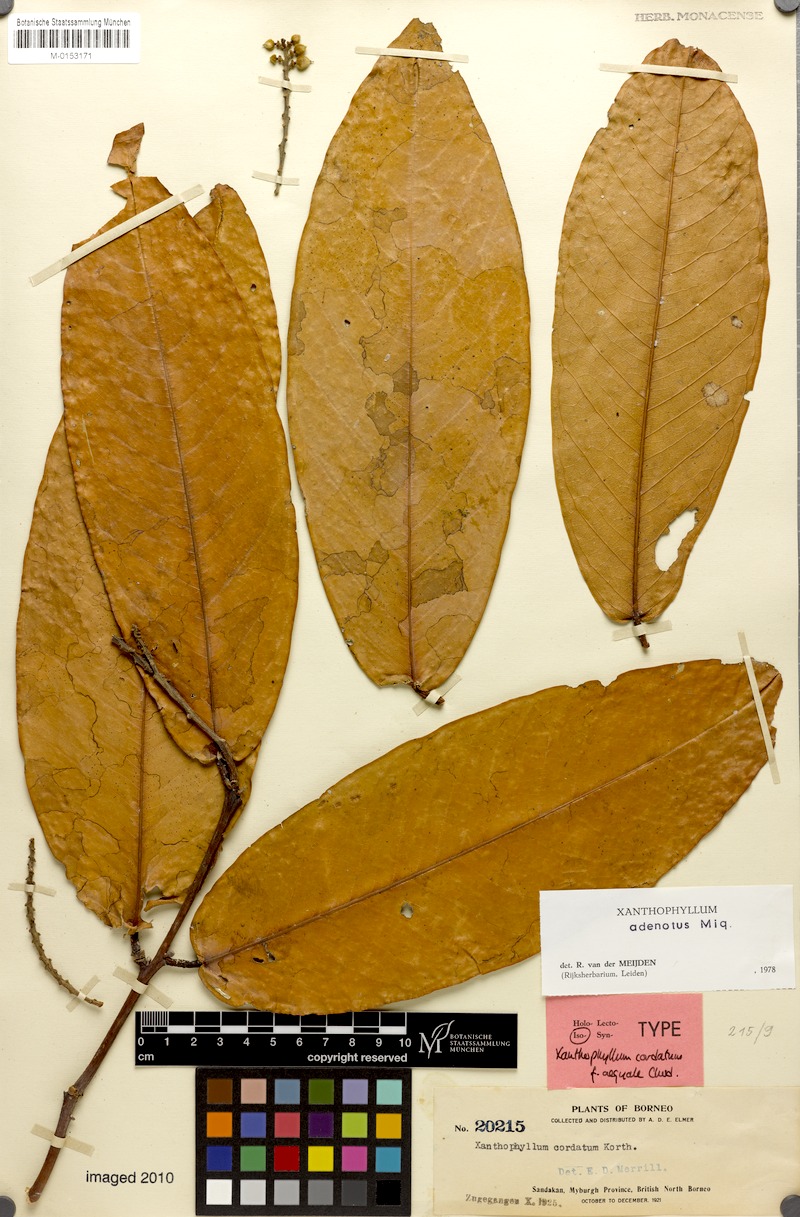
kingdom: Plantae
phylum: Tracheophyta
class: Magnoliopsida
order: Fabales
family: Polygalaceae
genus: Xanthophyllum
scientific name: Xanthophyllum adenotus
